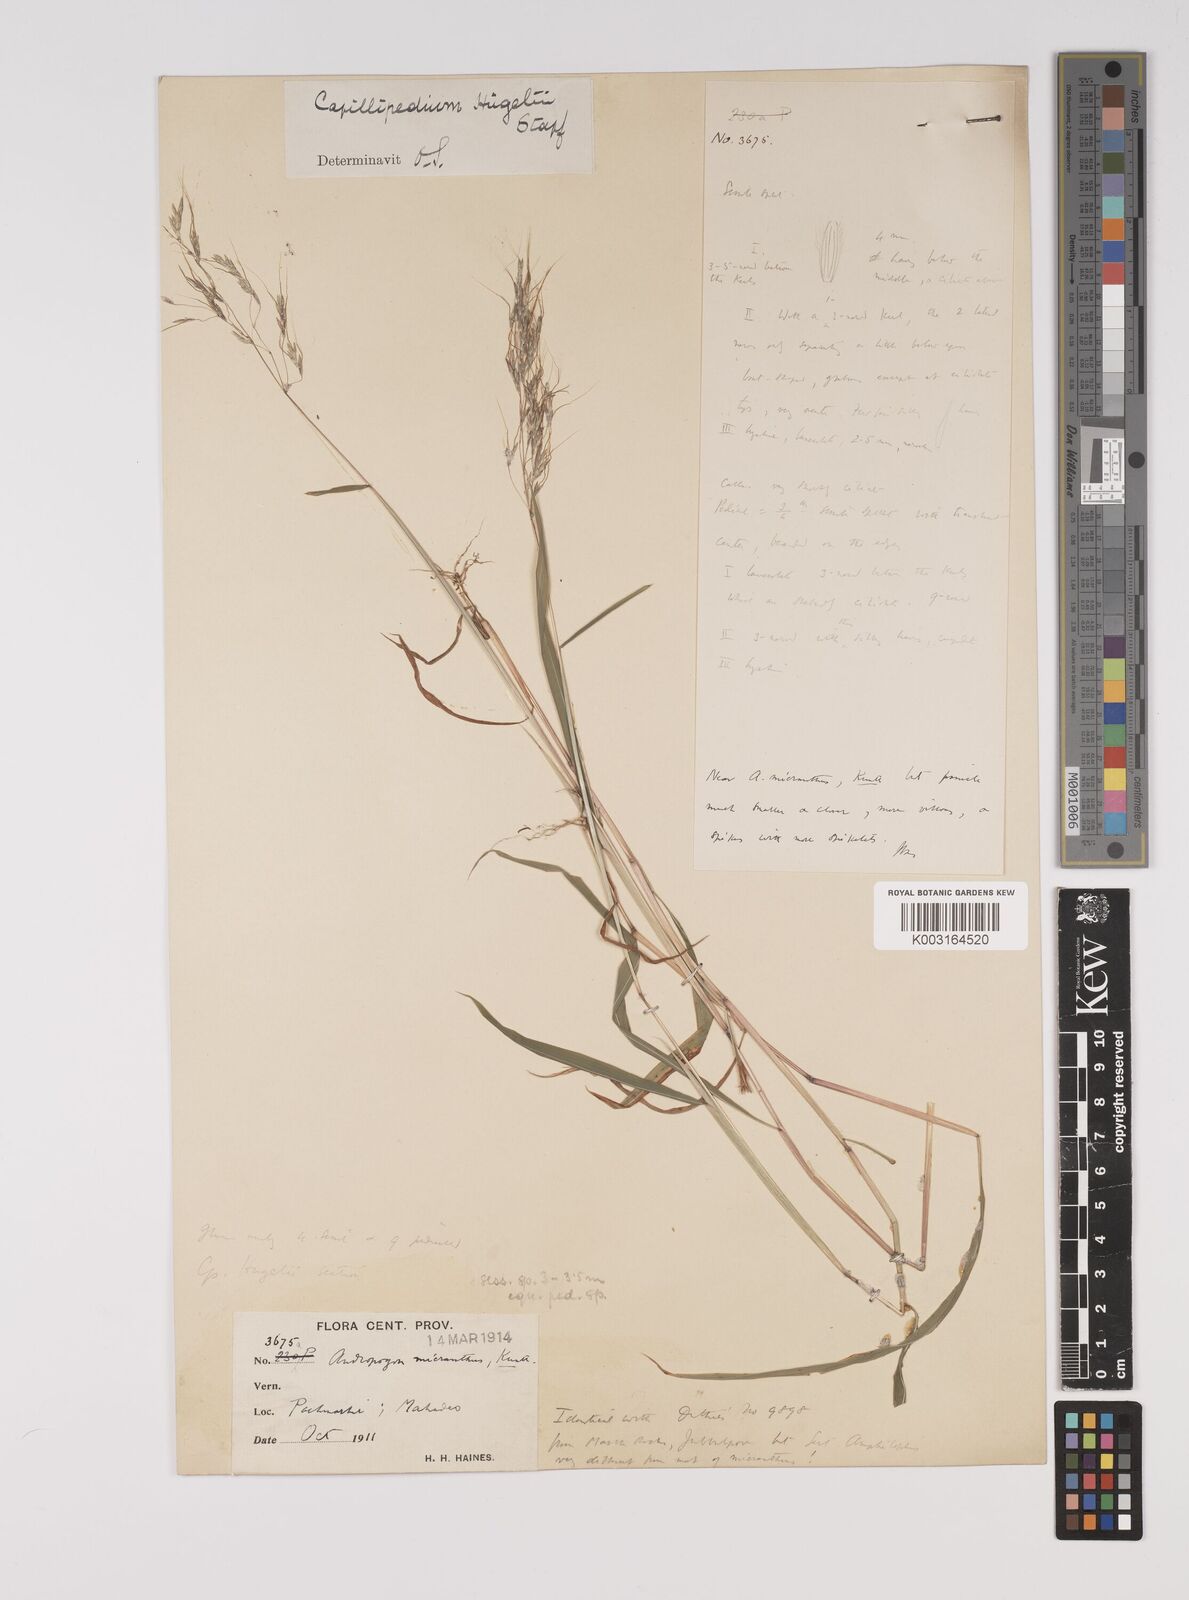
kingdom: Plantae
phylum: Tracheophyta
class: Liliopsida
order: Poales
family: Poaceae
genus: Capillipedium
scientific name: Capillipedium huegelii
